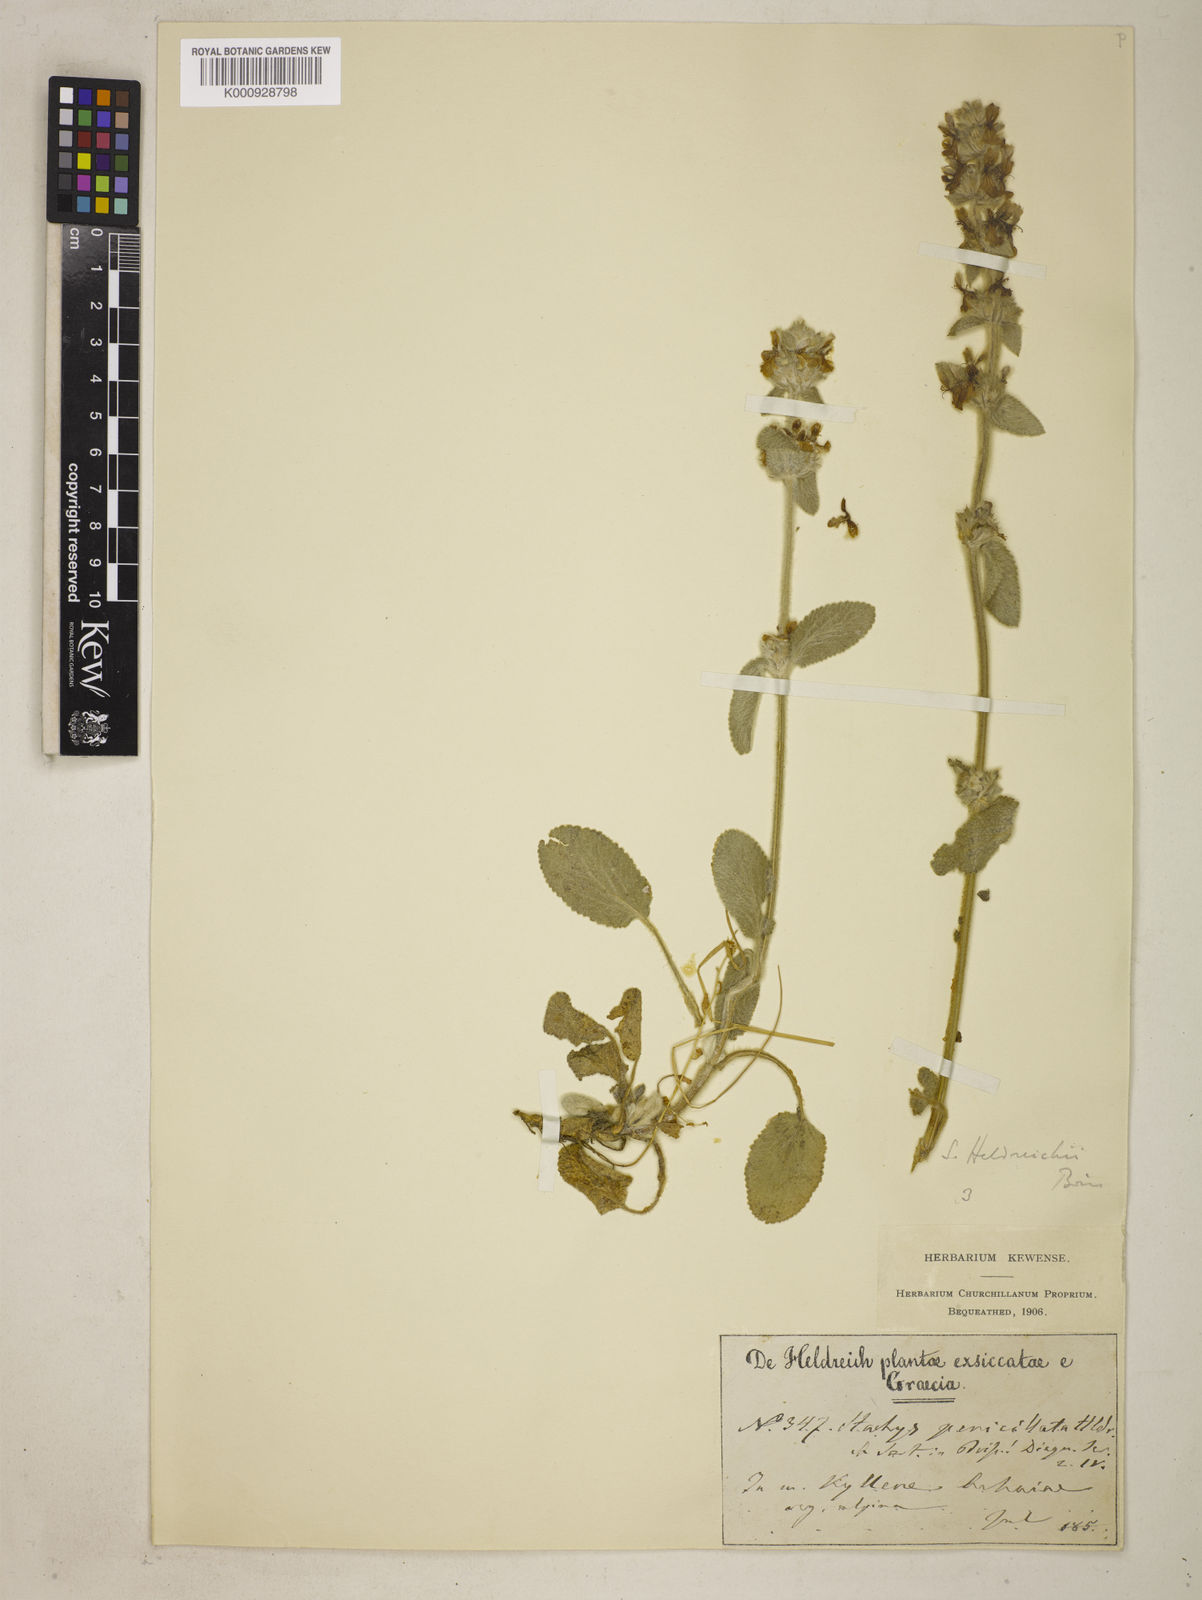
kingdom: Plantae
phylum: Tracheophyta
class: Magnoliopsida
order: Lamiales
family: Lamiaceae
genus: Stachys
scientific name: Stachys germanica
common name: Downy woundwort
